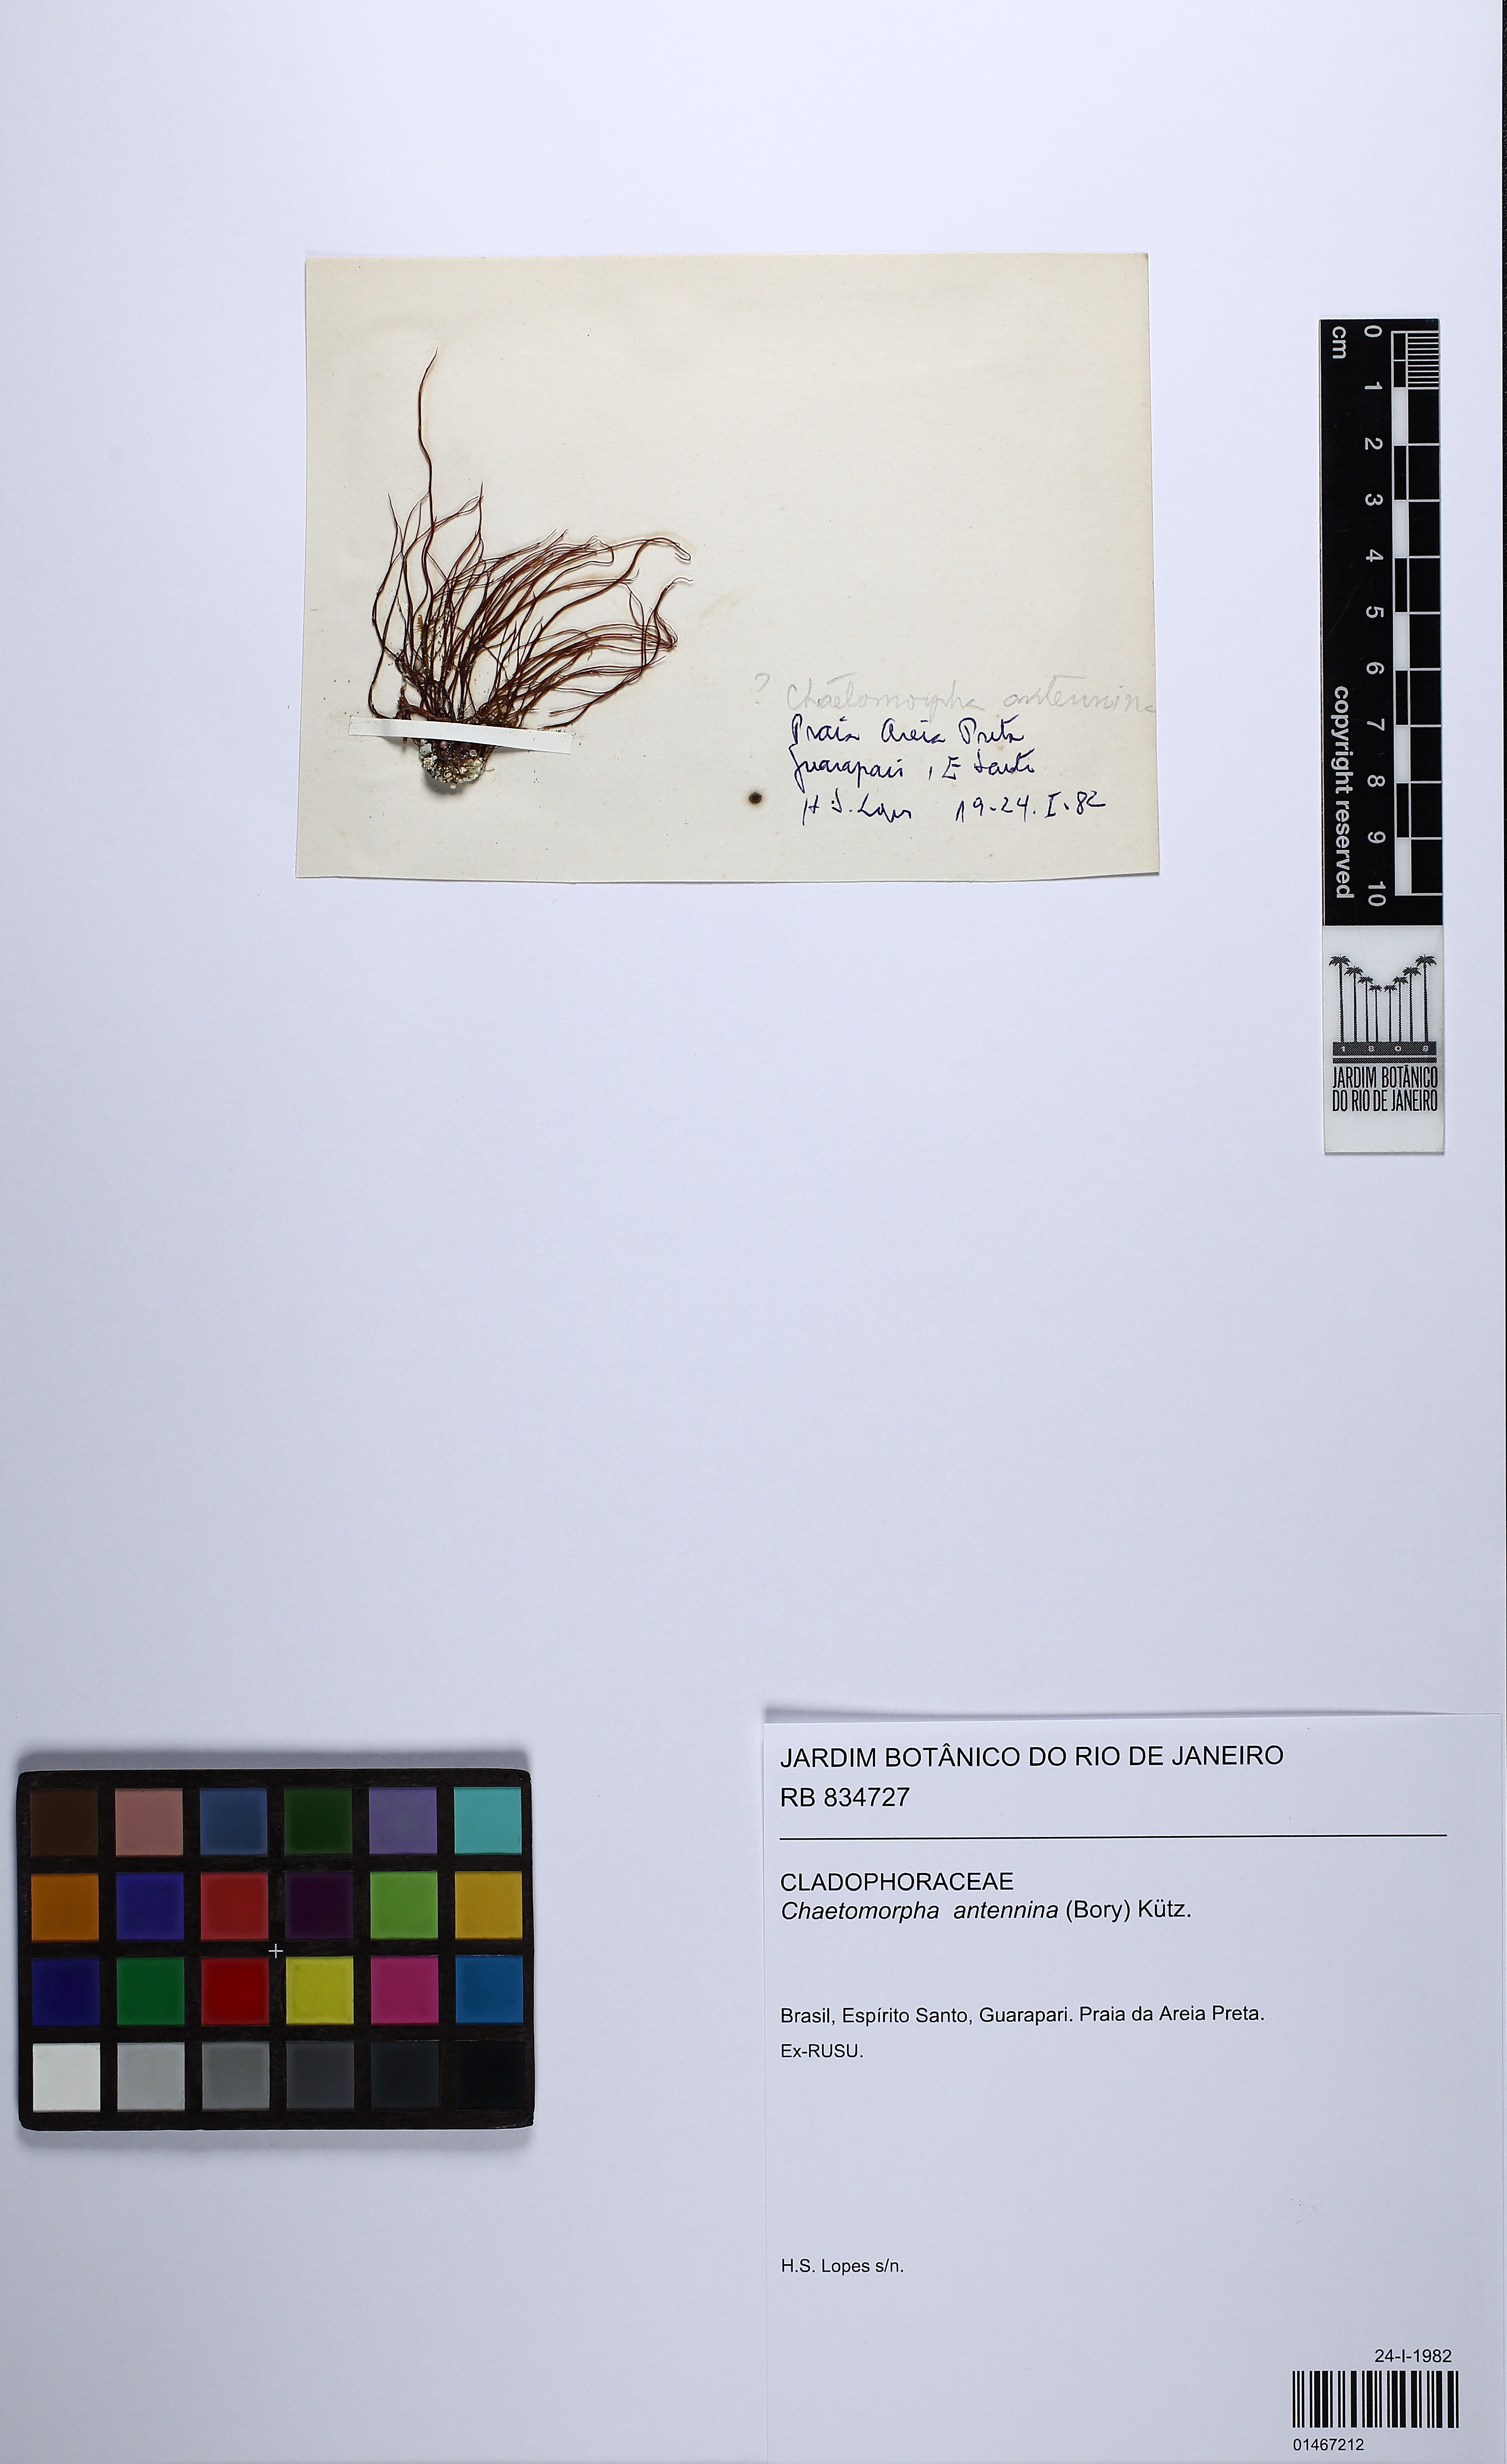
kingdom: Plantae
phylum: Chlorophyta
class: Ulvophyceae
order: Cladophorales
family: Cladophoraceae
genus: Chaetomorpha
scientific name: Chaetomorpha antennina
